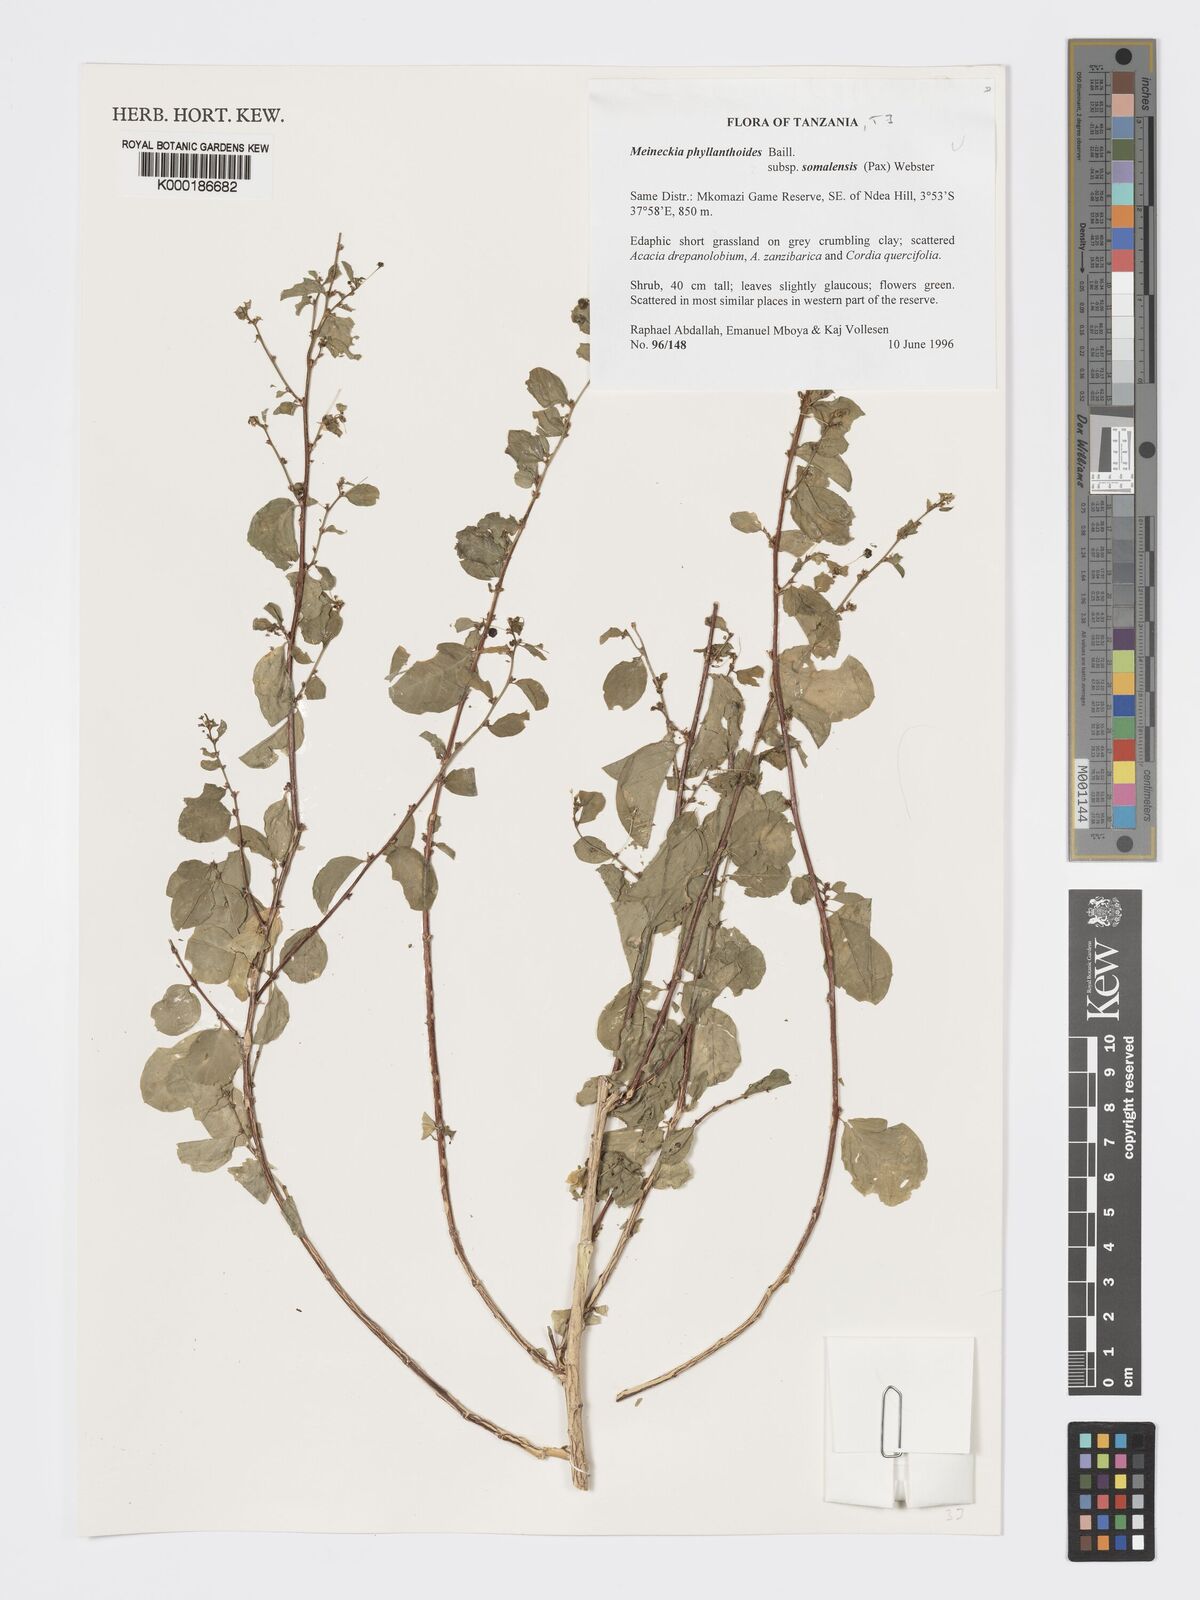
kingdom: Plantae
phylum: Tracheophyta
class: Magnoliopsida
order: Malpighiales
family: Phyllanthaceae
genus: Meineckia
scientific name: Meineckia phyllanthoides
